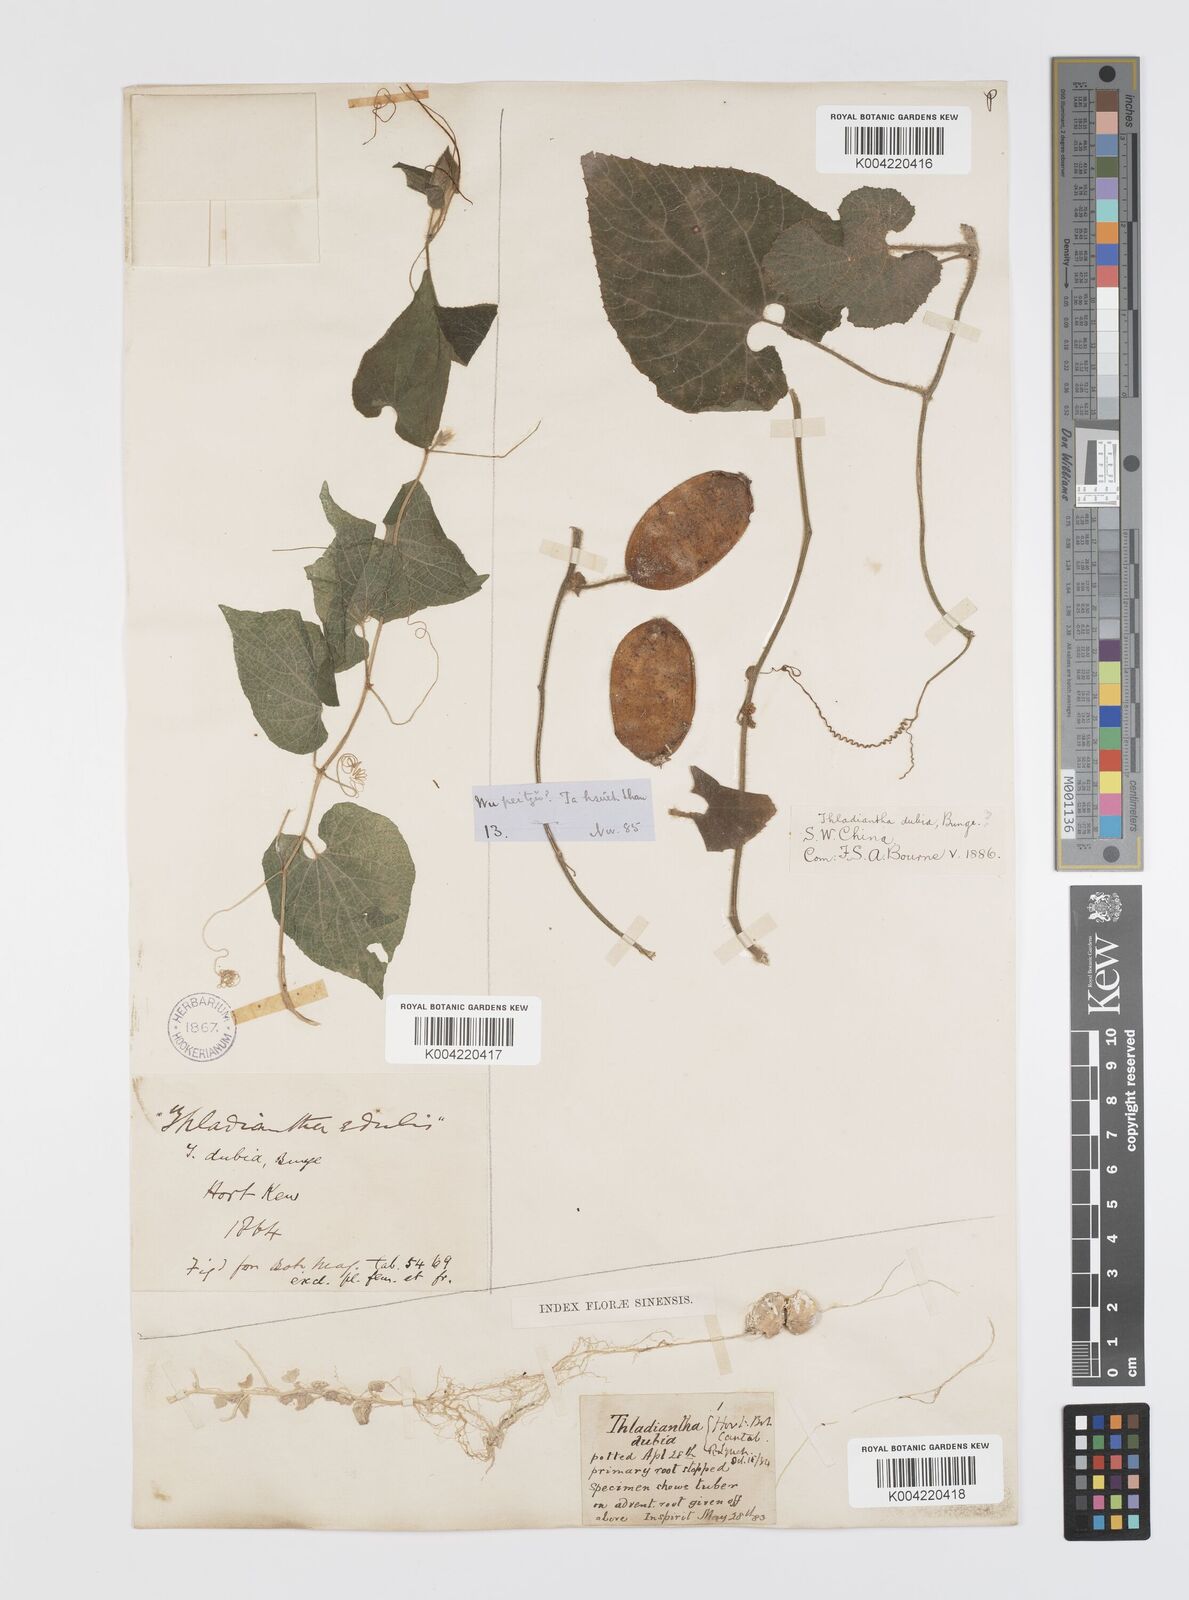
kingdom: Plantae
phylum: Tracheophyta
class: Magnoliopsida
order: Cucurbitales
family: Cucurbitaceae
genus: Thladiantha
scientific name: Thladiantha nudiflora
